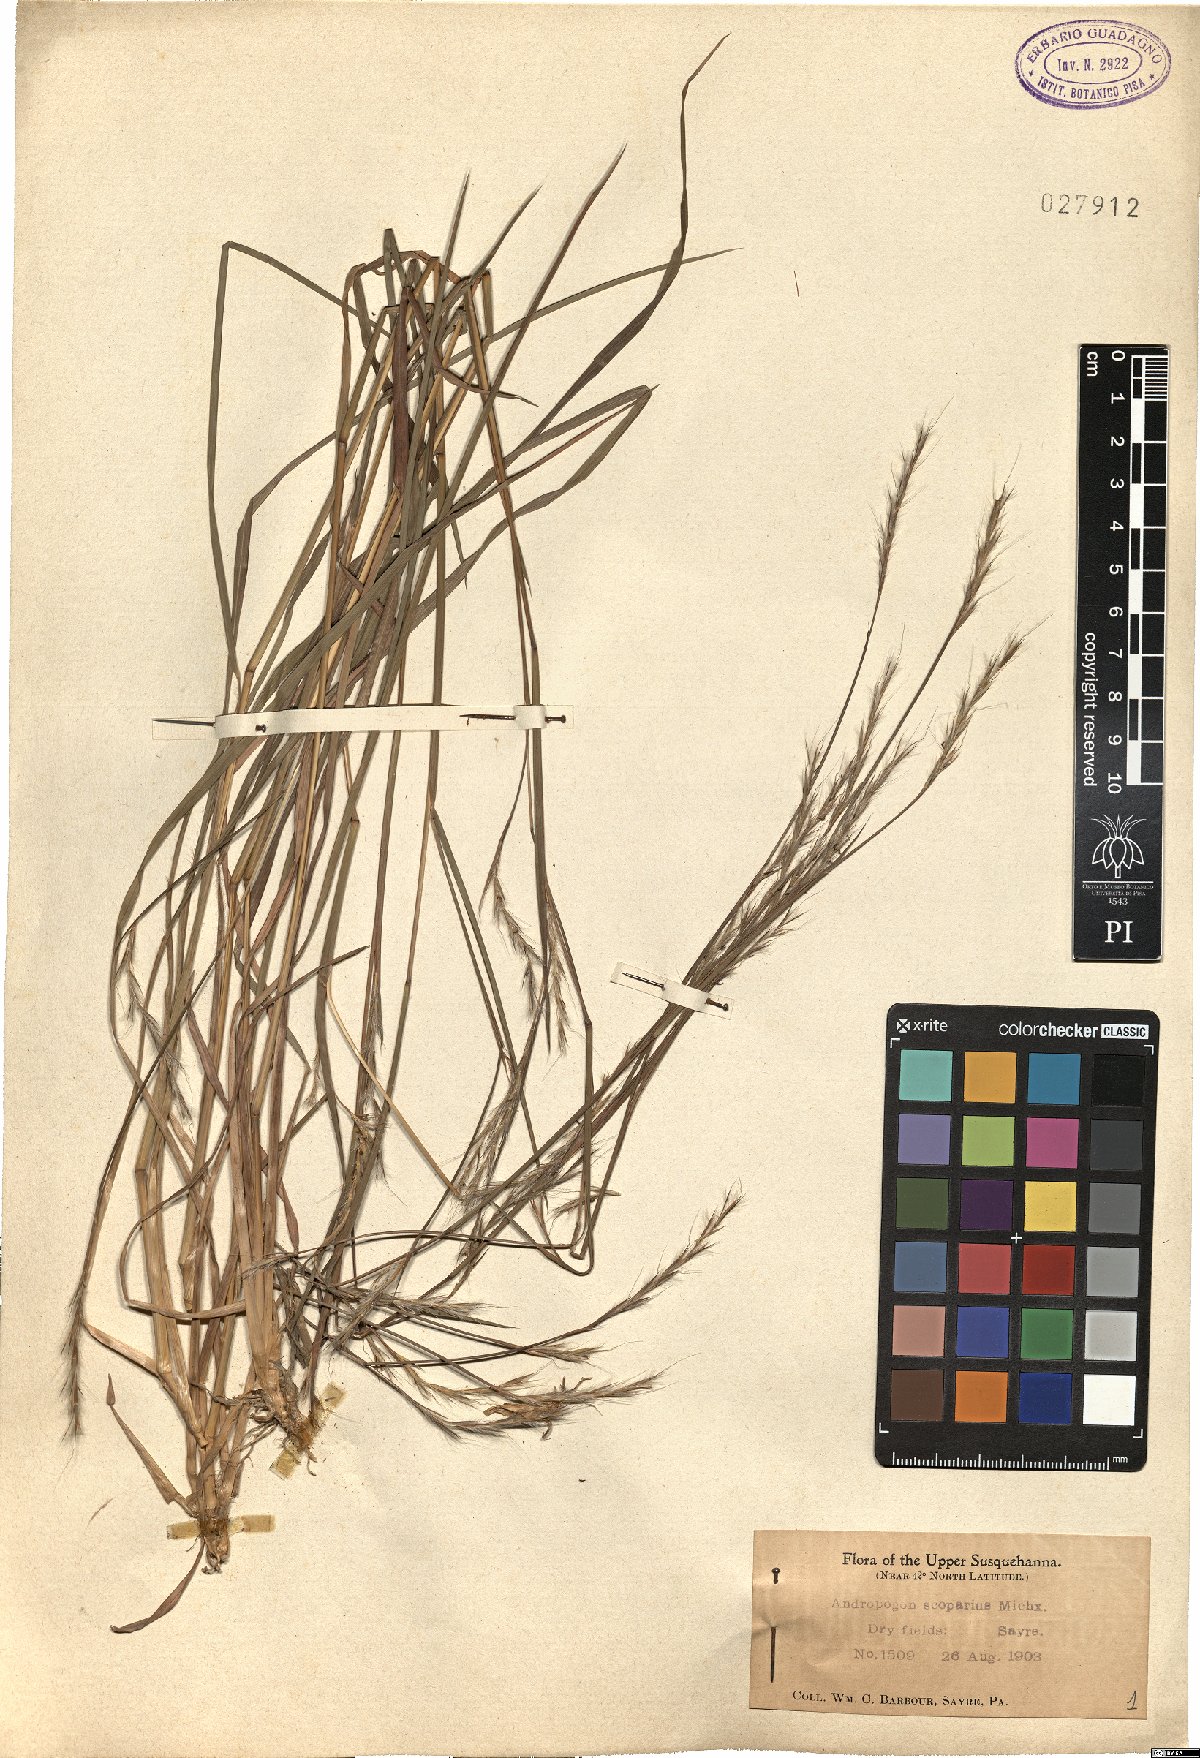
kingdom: Plantae
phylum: Tracheophyta
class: Liliopsida
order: Poales
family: Poaceae
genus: Schizachyrium
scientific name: Schizachyrium scoparium
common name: Little bluestem
